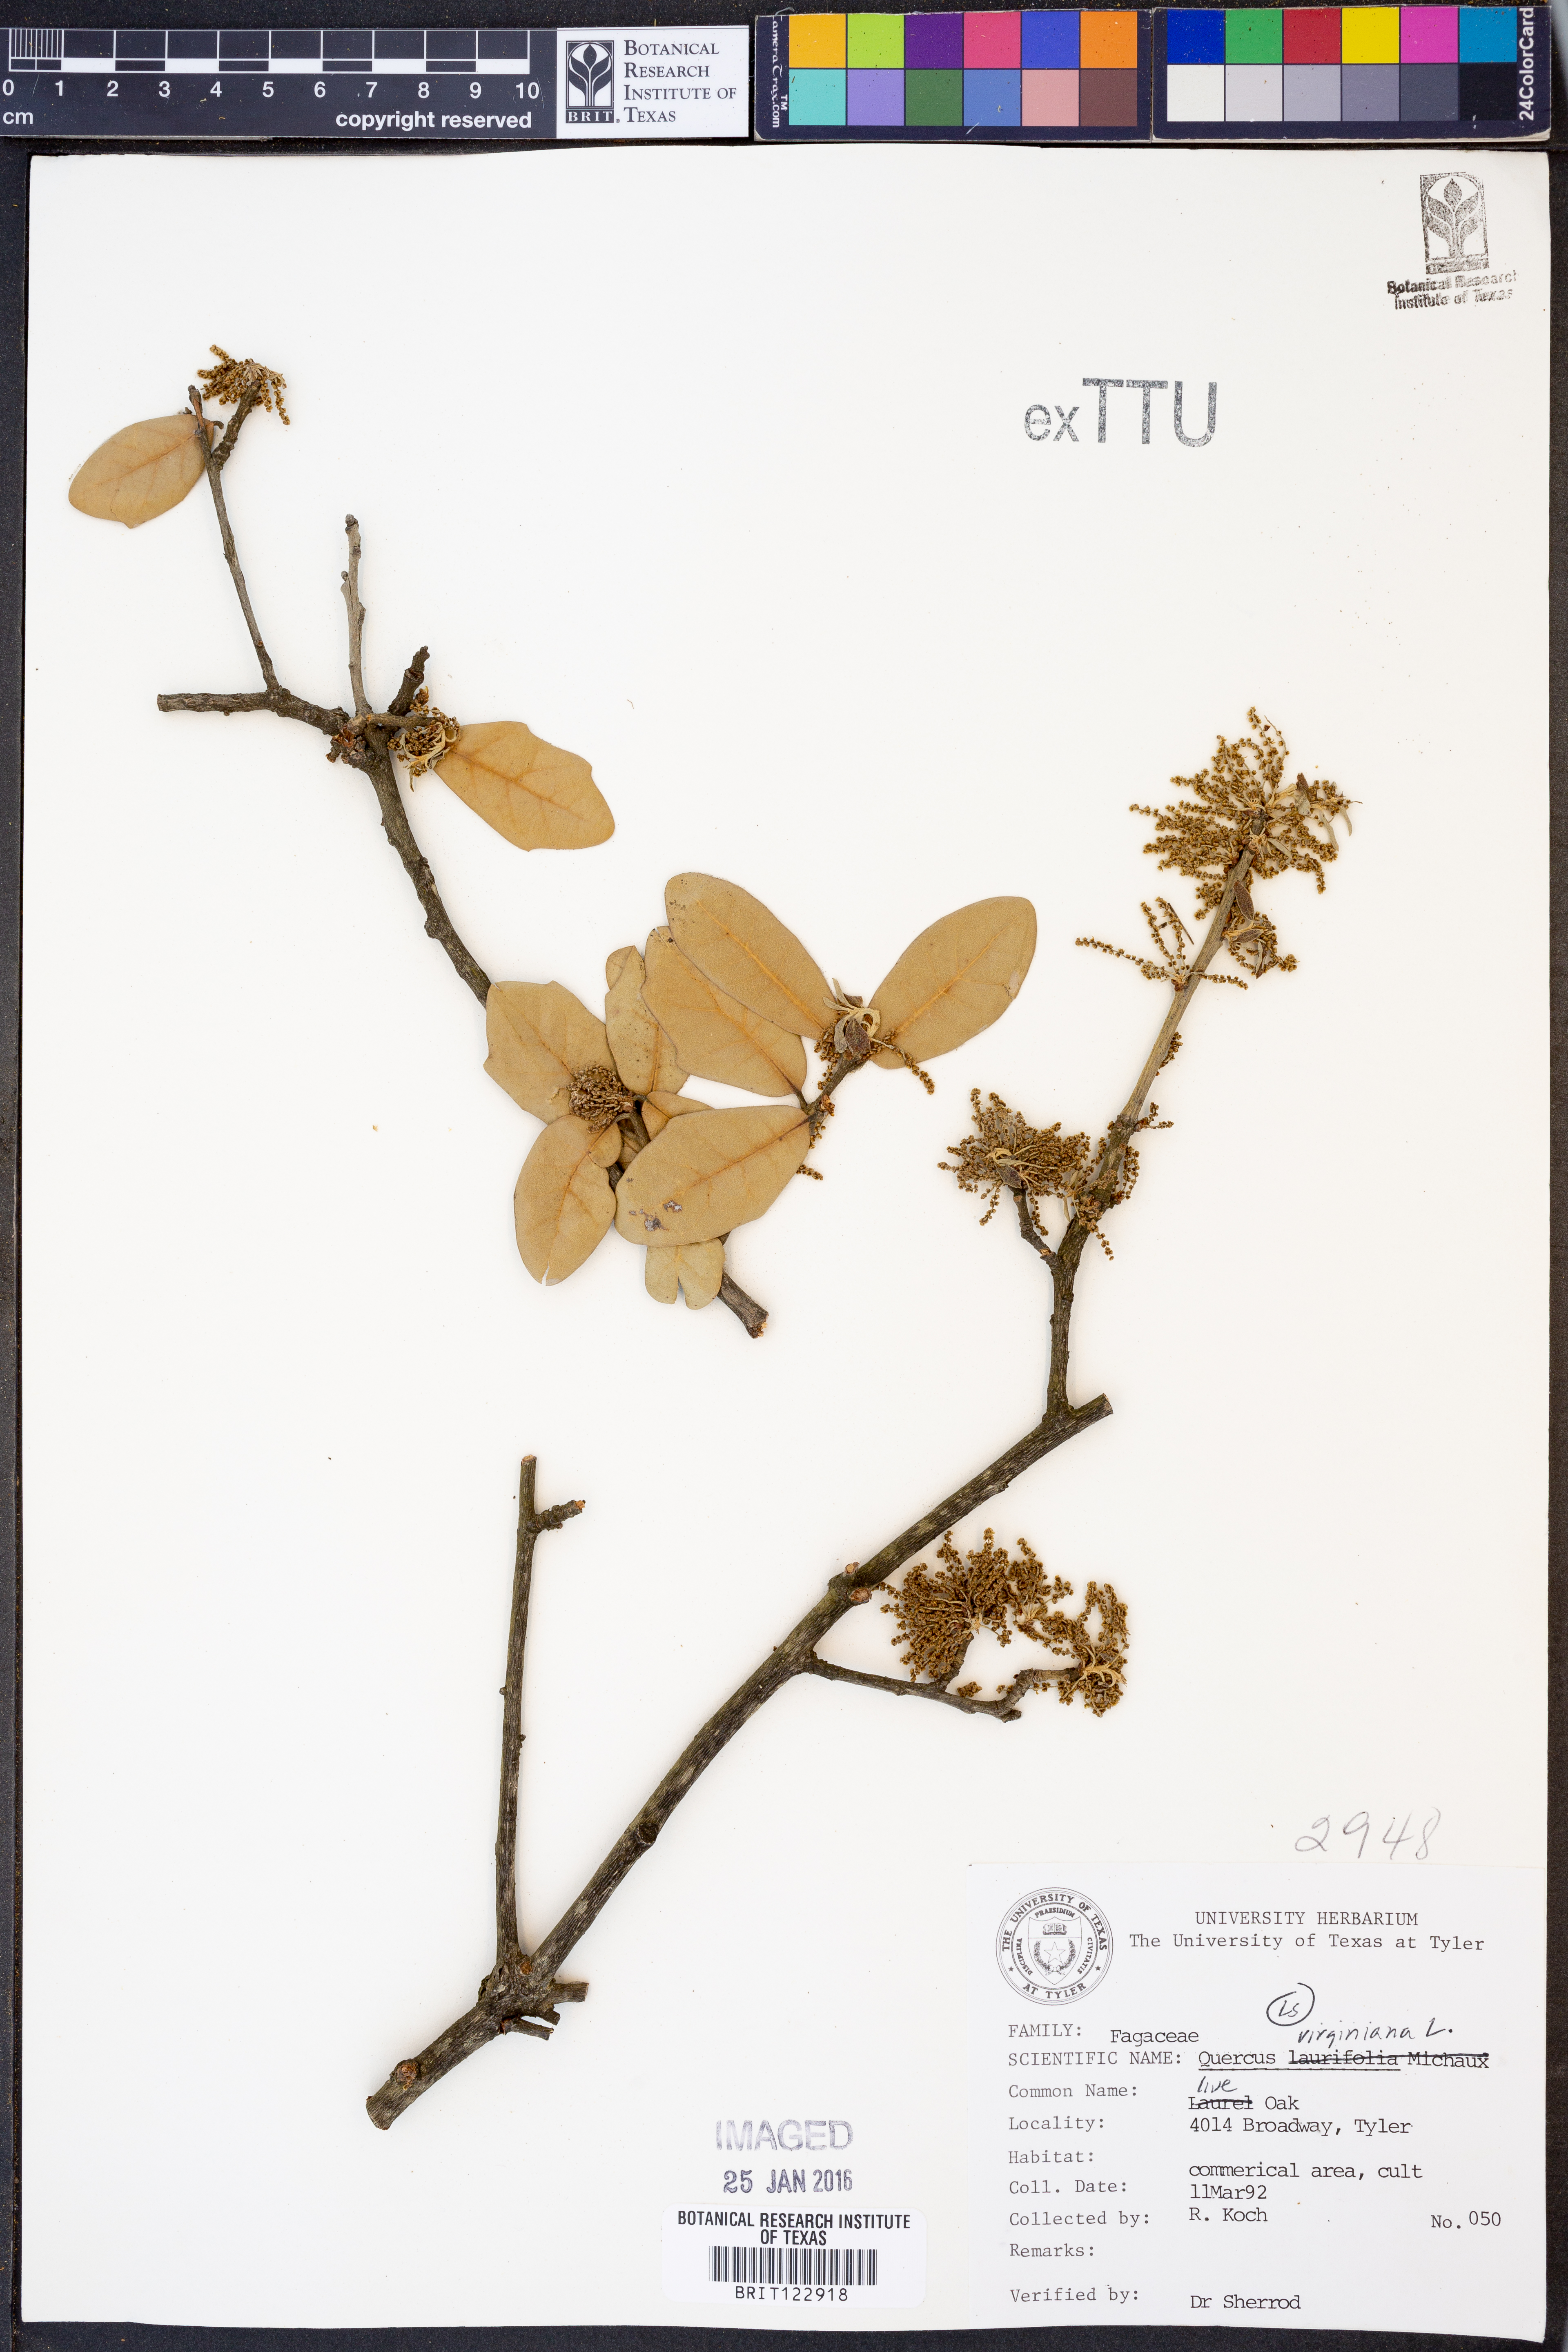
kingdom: Plantae
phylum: Tracheophyta
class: Magnoliopsida
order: Fagales
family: Fagaceae
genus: Quercus
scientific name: Quercus virginiana
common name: Southern live oak
